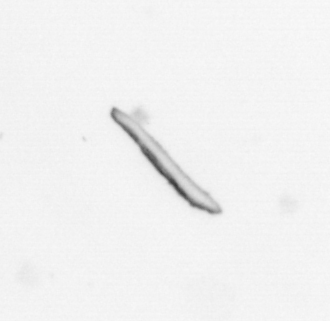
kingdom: Chromista
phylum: Ochrophyta
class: Bacillariophyceae
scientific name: Bacillariophyceae
